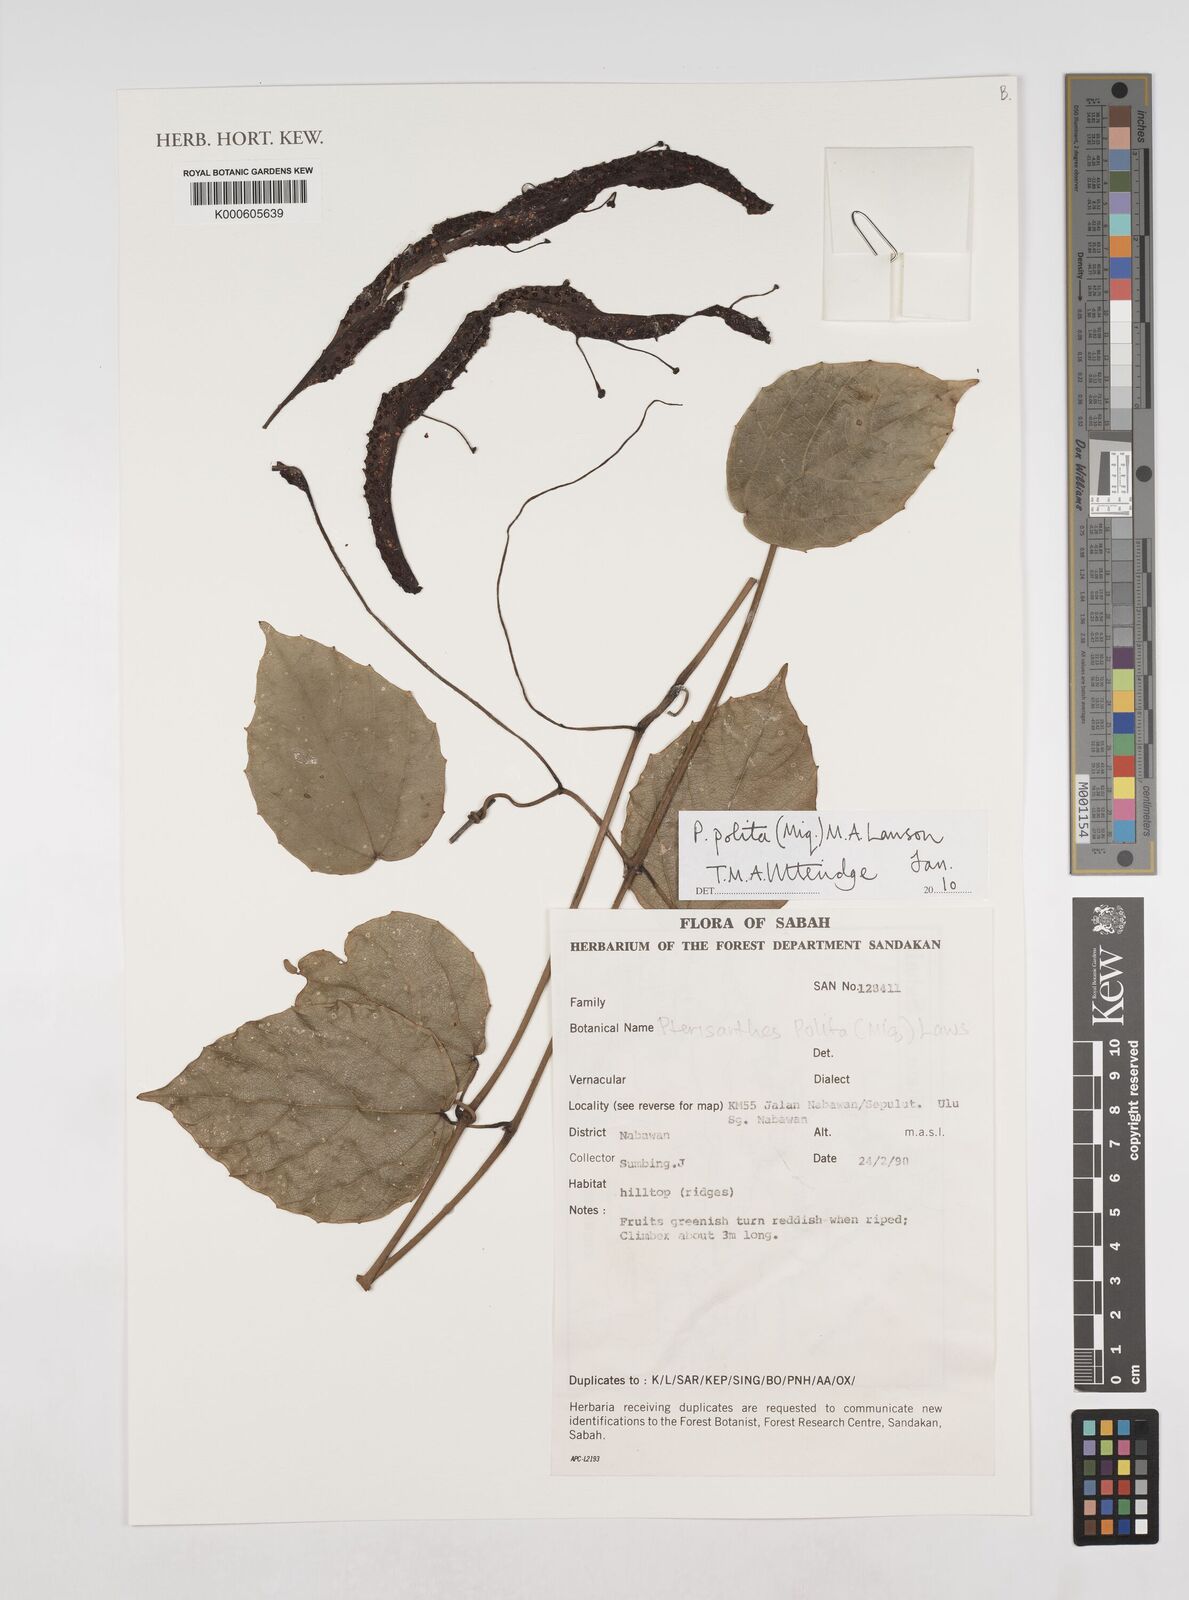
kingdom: Plantae
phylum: Tracheophyta
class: Magnoliopsida
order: Vitales
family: Vitaceae
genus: Ampelocissus
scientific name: Ampelocissus polita
